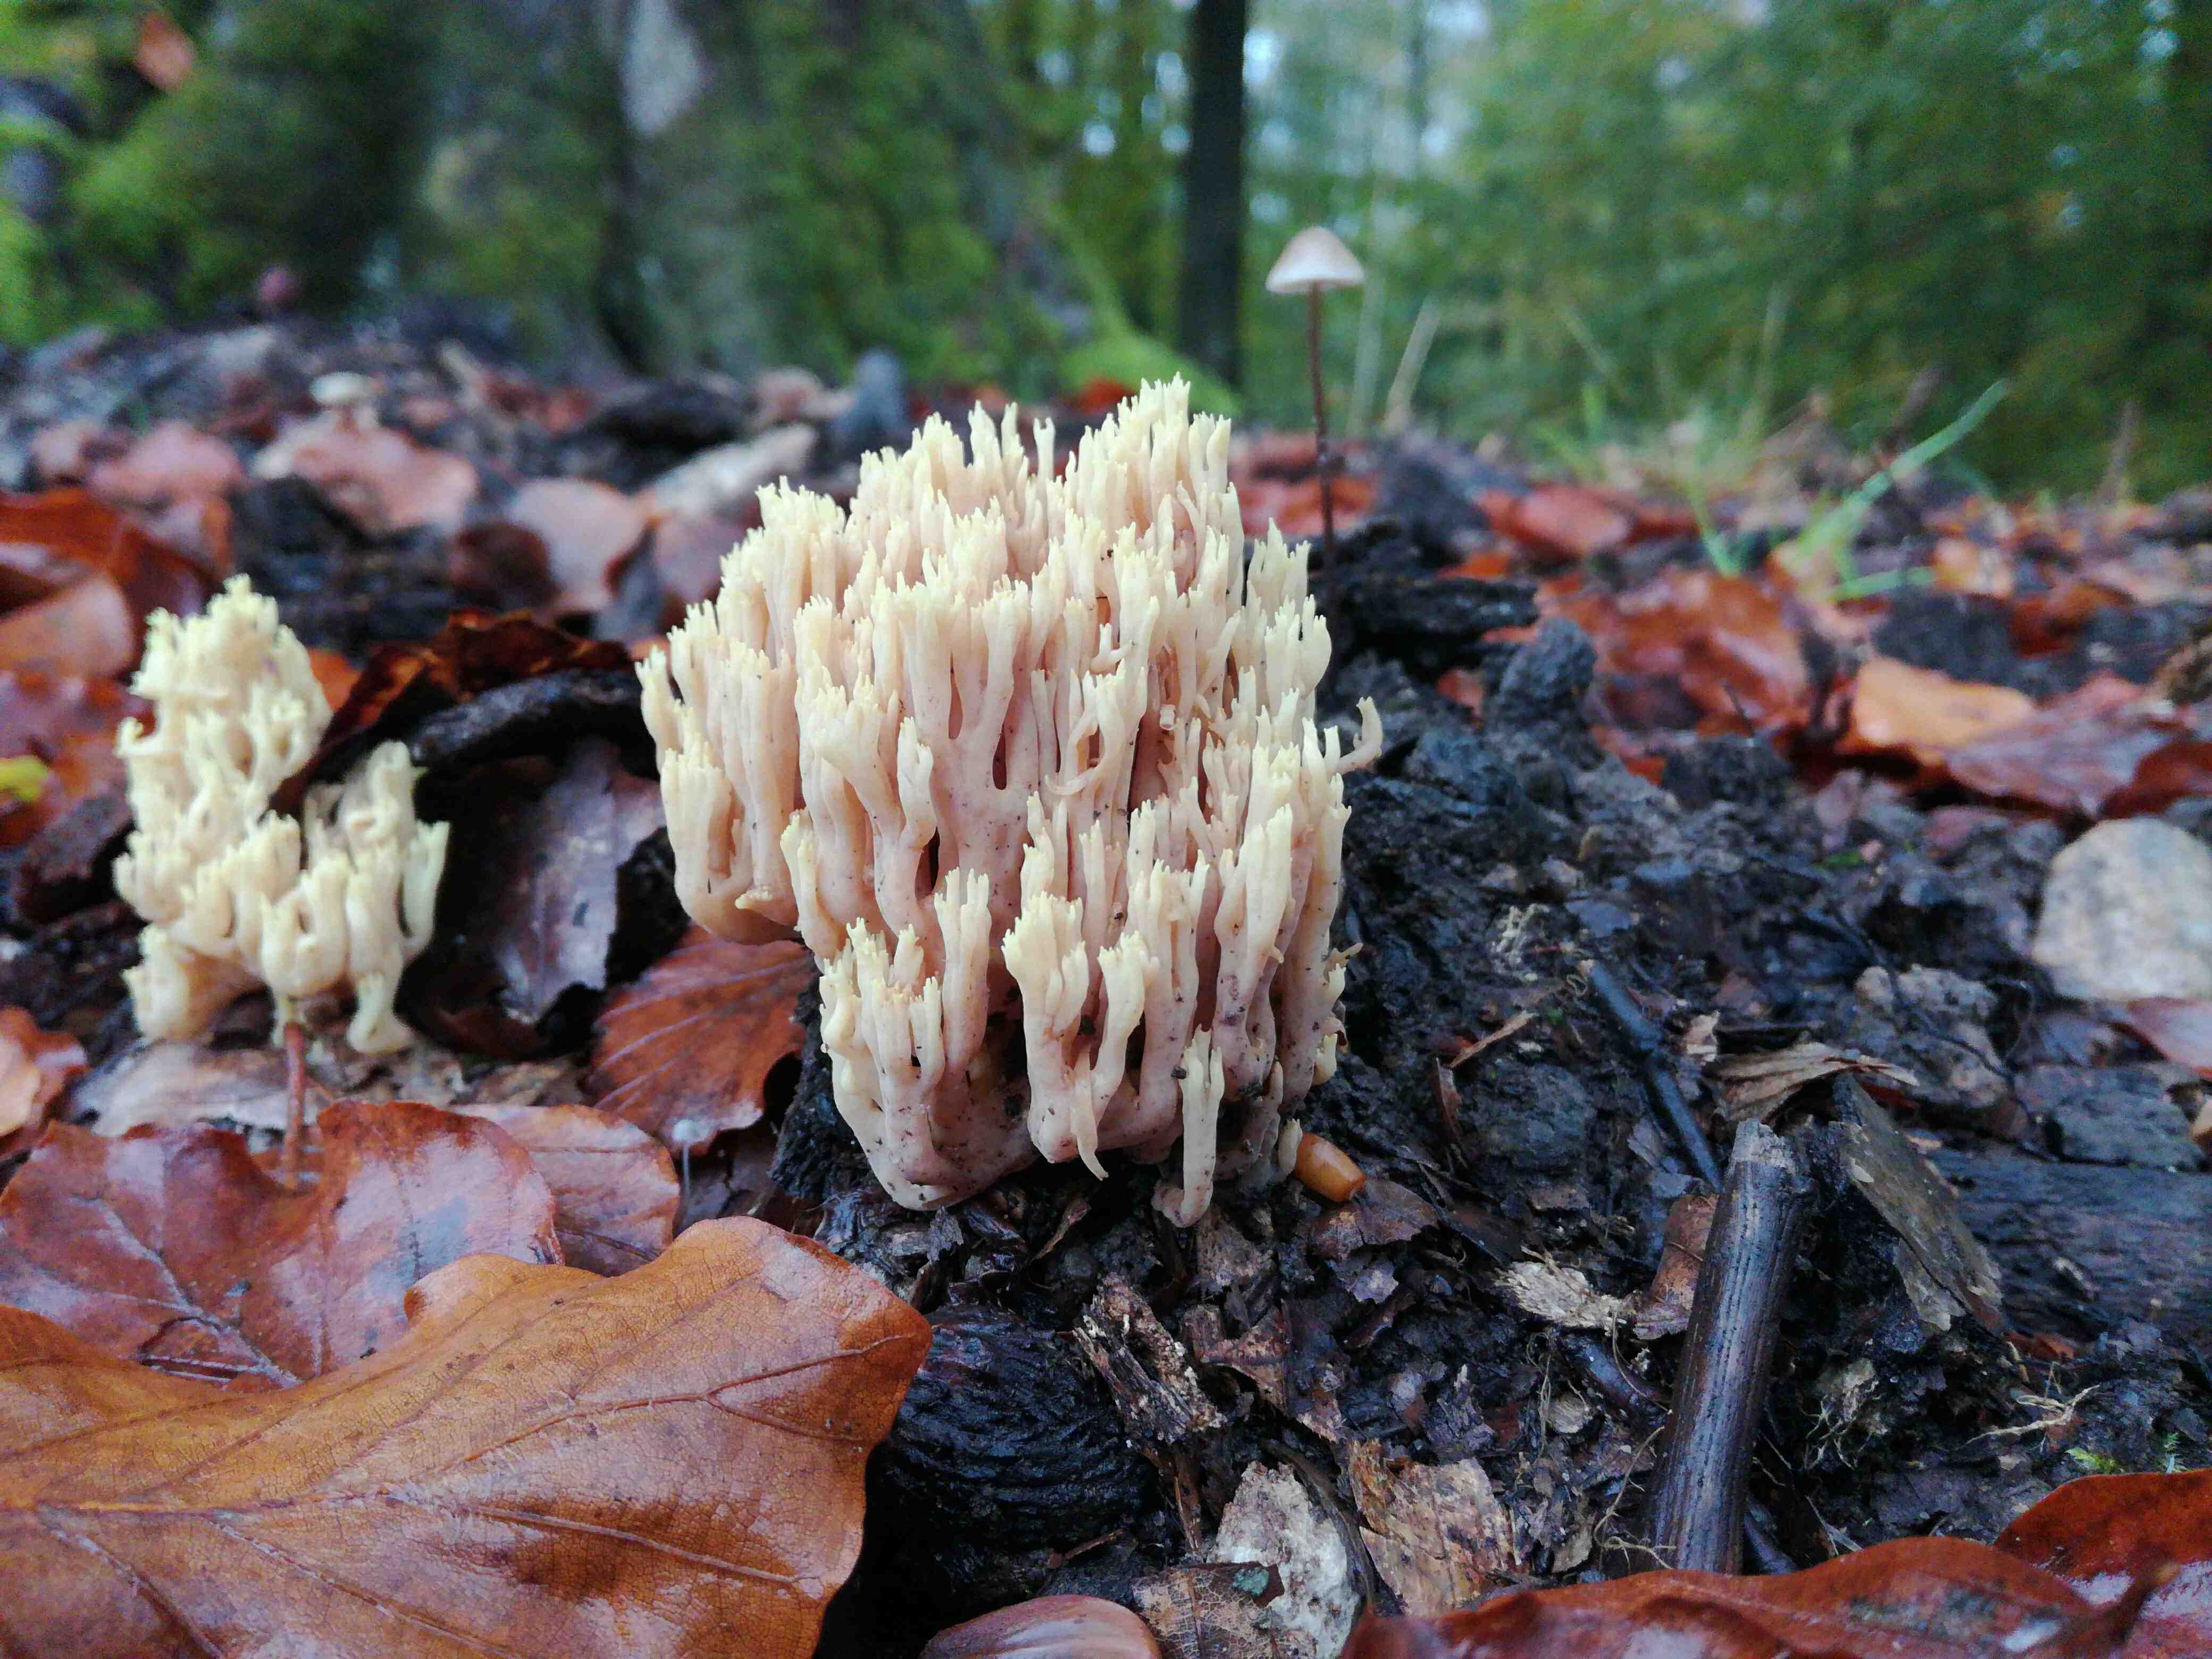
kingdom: Fungi
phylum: Basidiomycota
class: Agaricomycetes
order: Gomphales
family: Gomphaceae
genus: Ramaria
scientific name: Ramaria stricta
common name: rank koralsvamp
